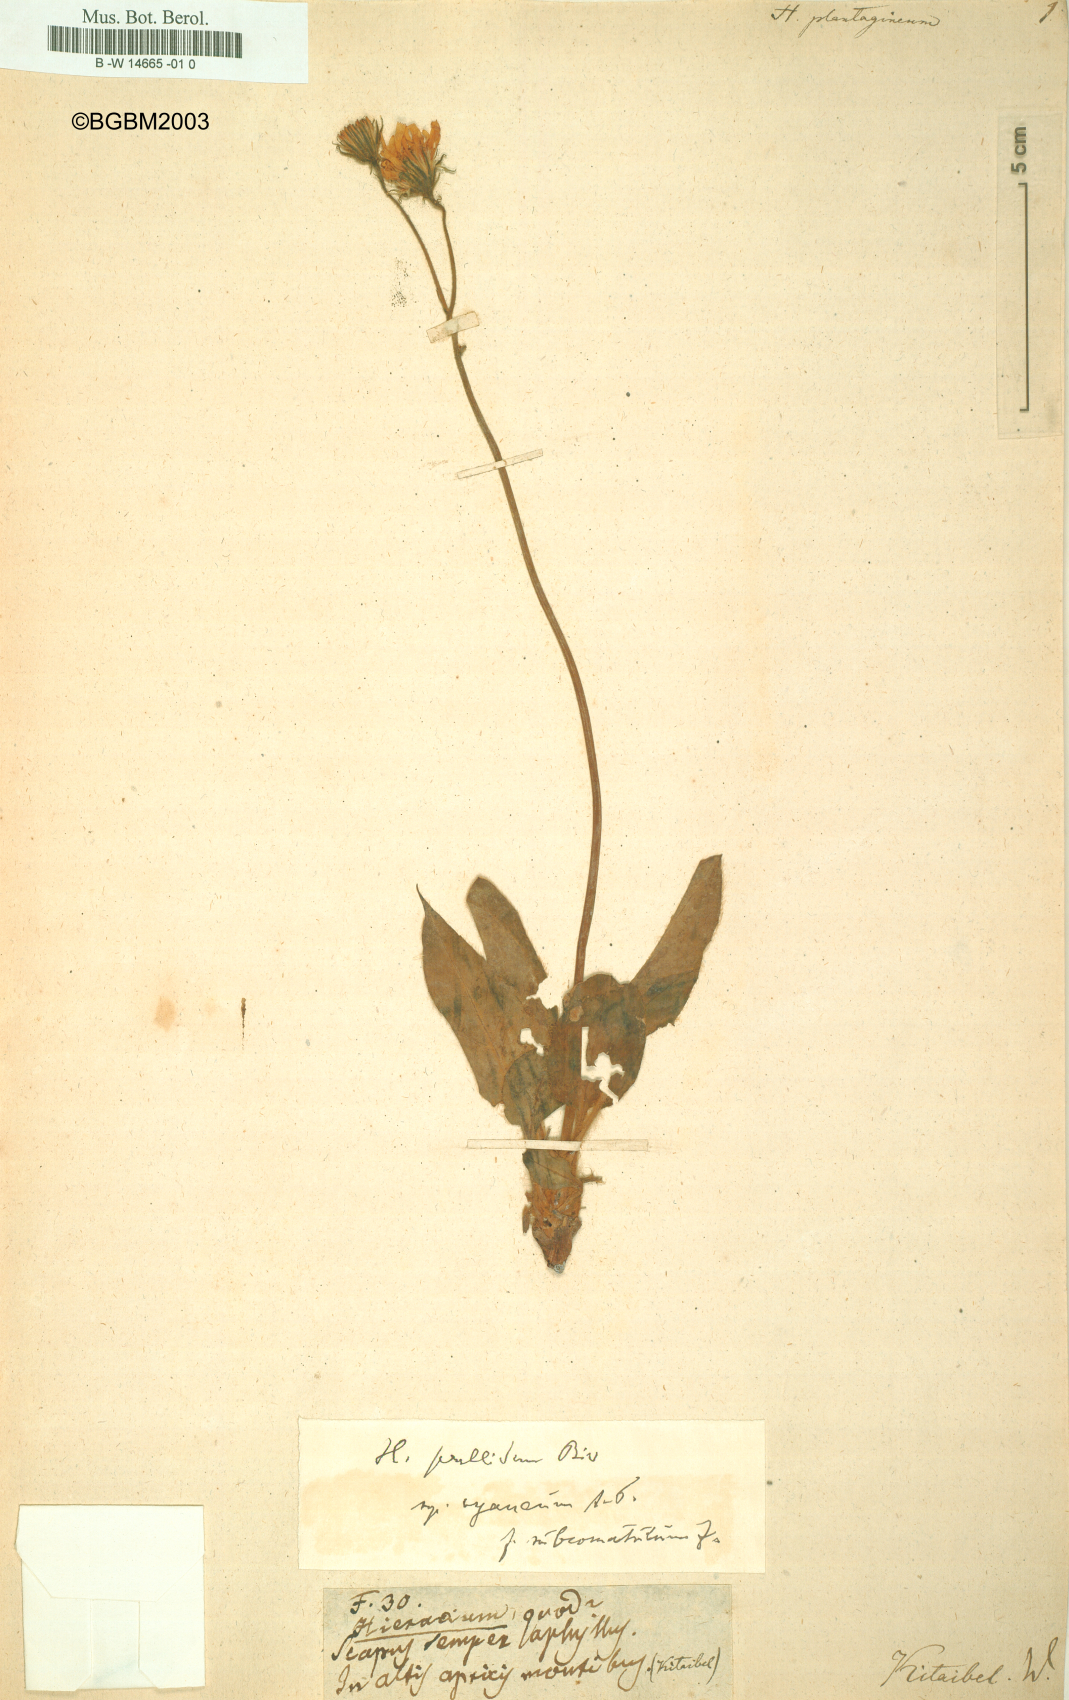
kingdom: Plantae
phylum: Tracheophyta
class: Magnoliopsida
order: Asterales
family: Asteraceae
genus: Hieracium
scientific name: Hieracium plantagineum
